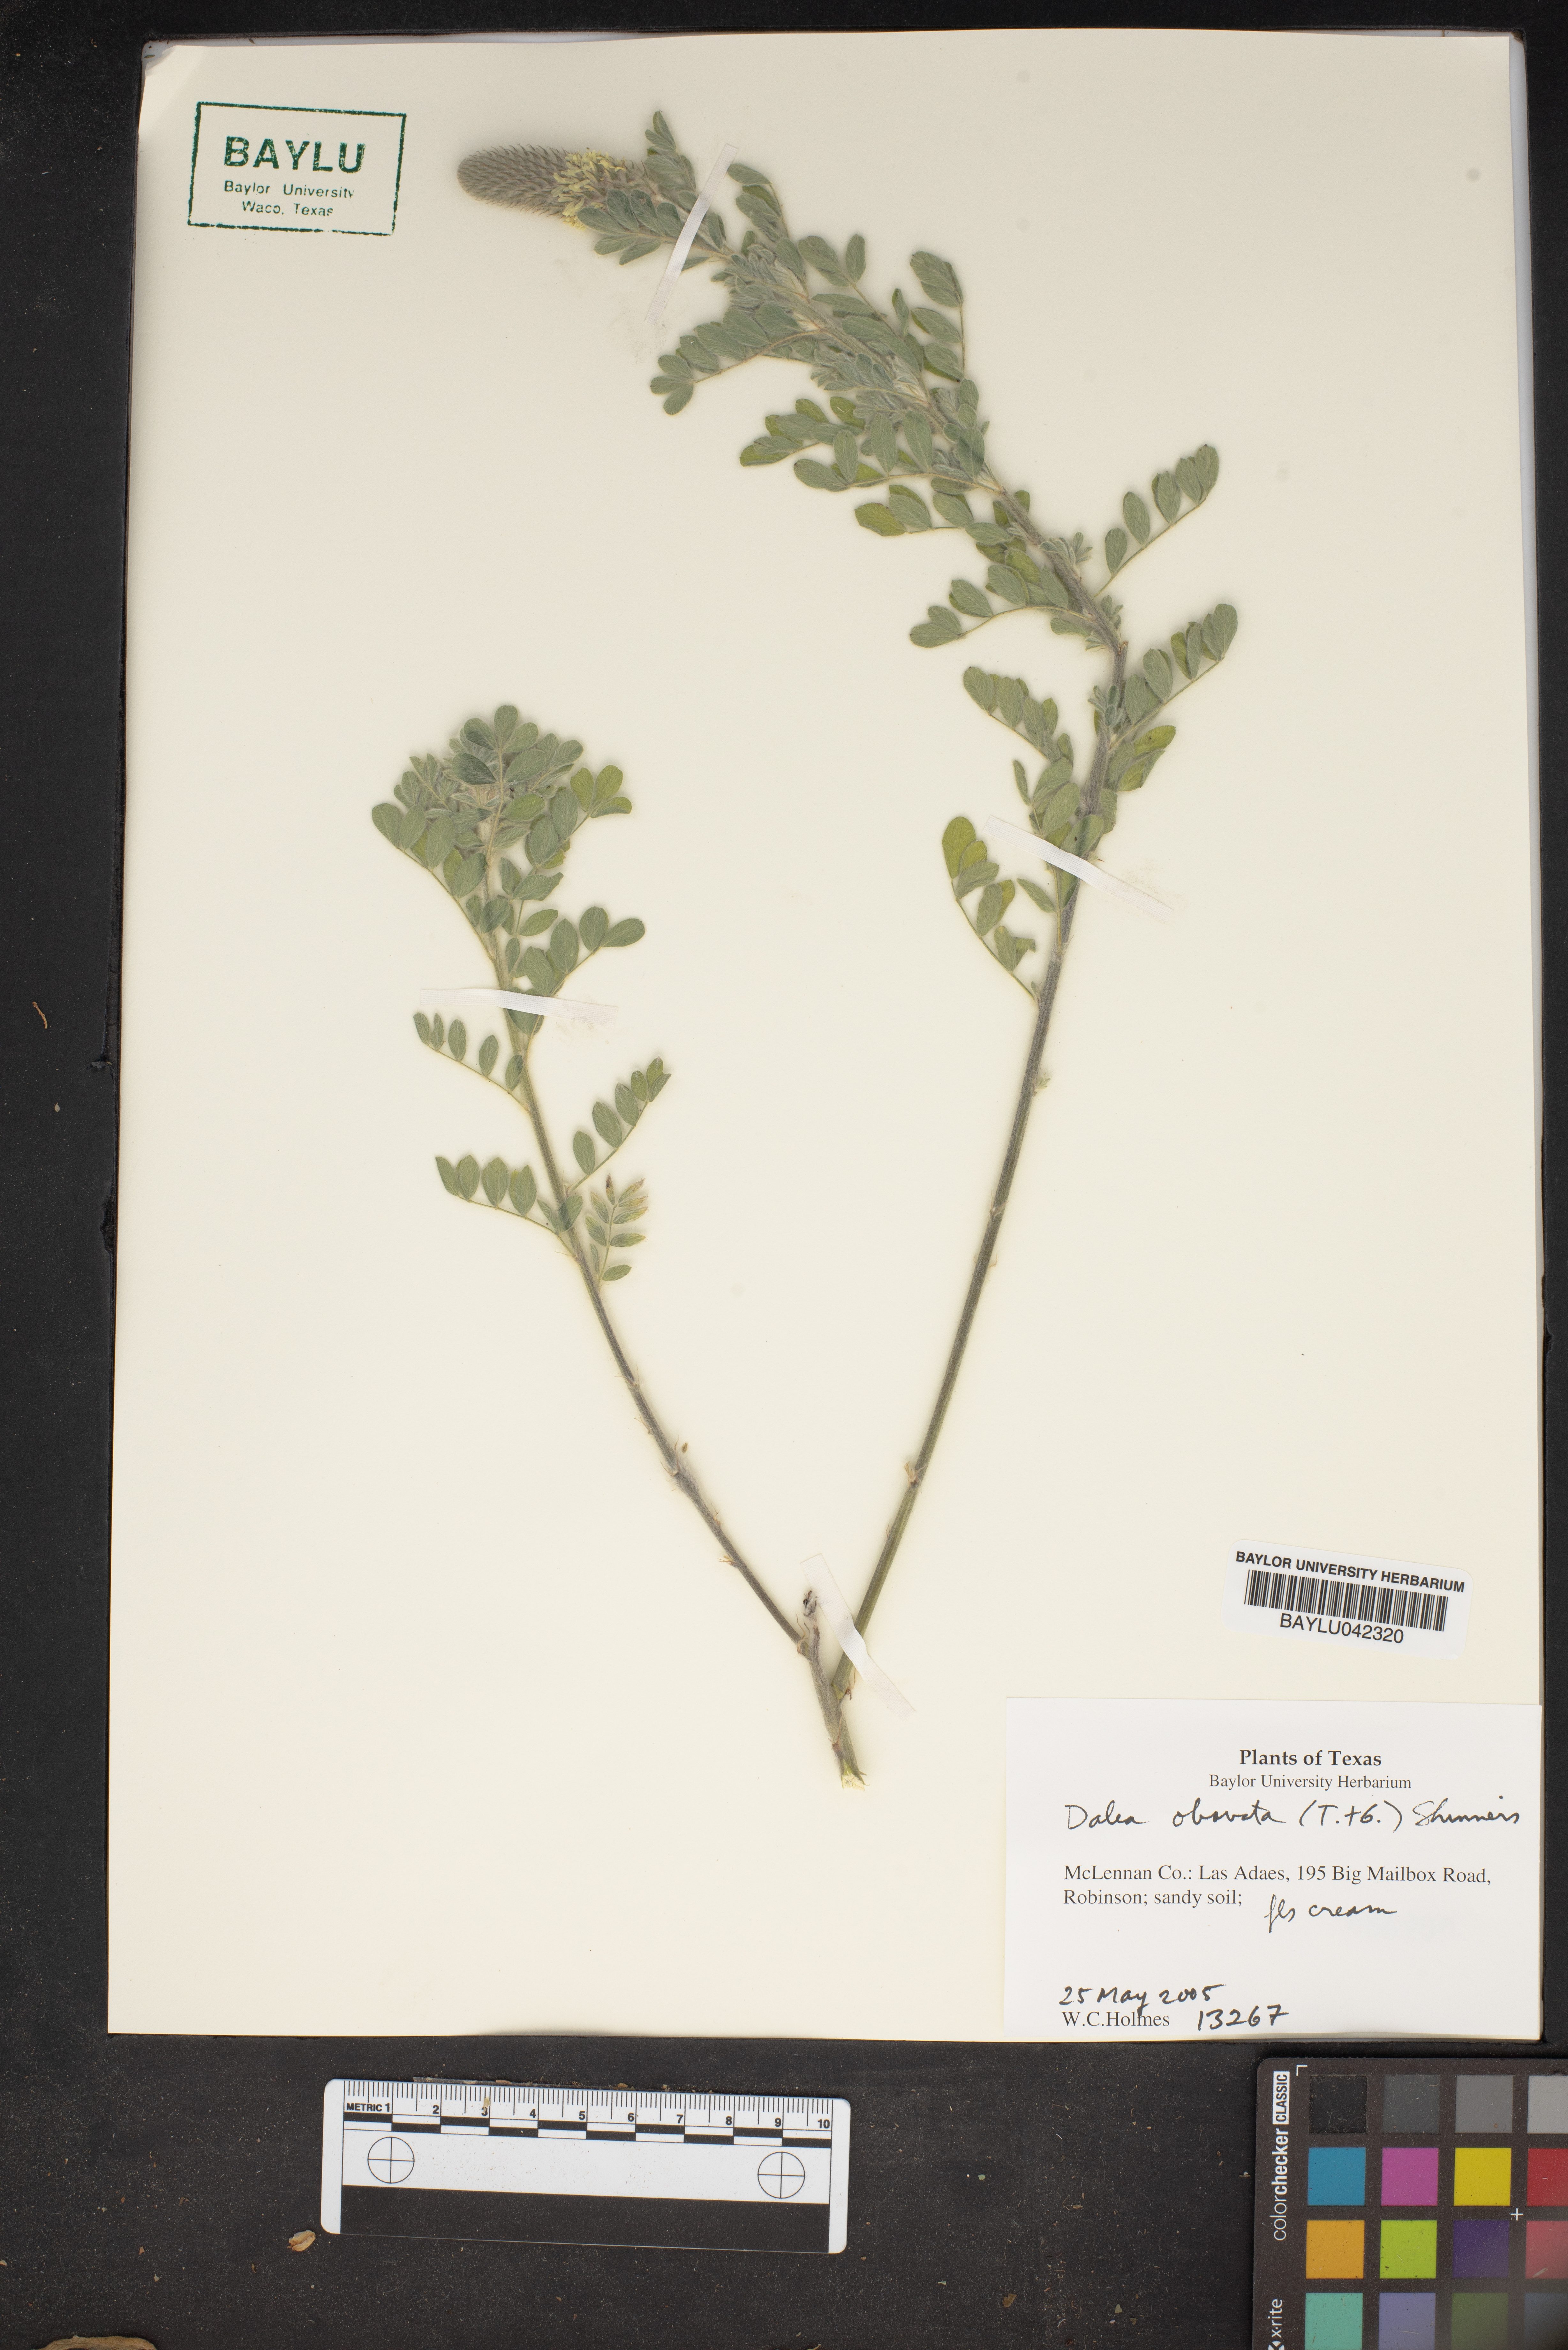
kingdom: Plantae
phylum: Tracheophyta
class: Magnoliopsida
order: Fabales
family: Fabaceae
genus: Dalea
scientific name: Dalea obovata
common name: Pussyfoot
